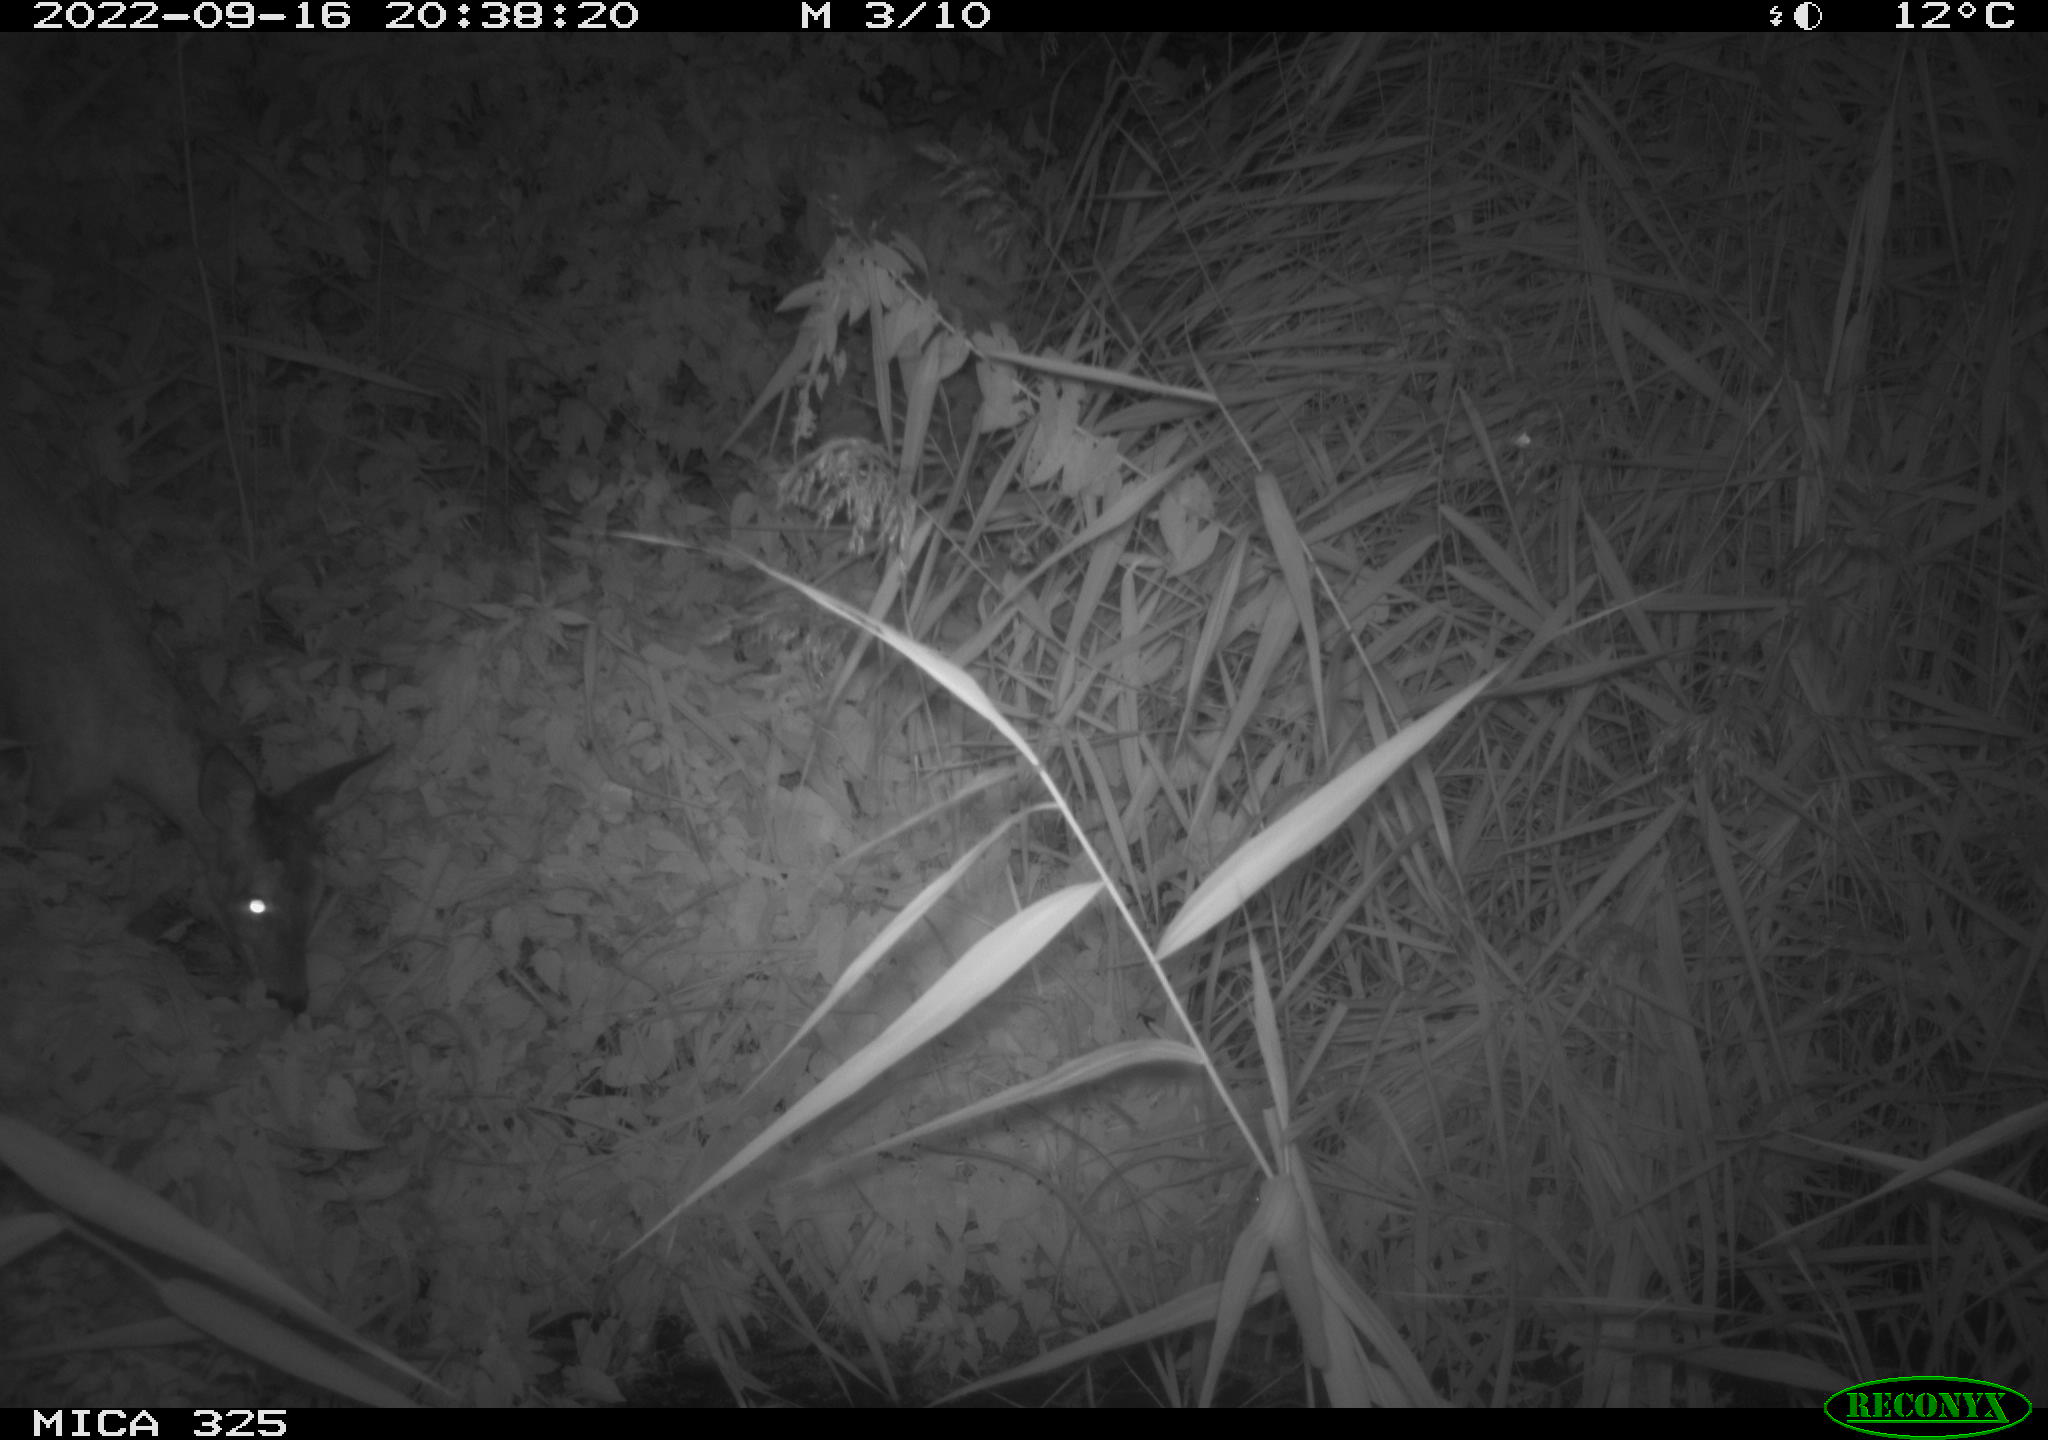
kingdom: Animalia
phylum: Chordata
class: Mammalia
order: Artiodactyla
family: Cervidae
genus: Capreolus
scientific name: Capreolus capreolus
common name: Western roe deer
